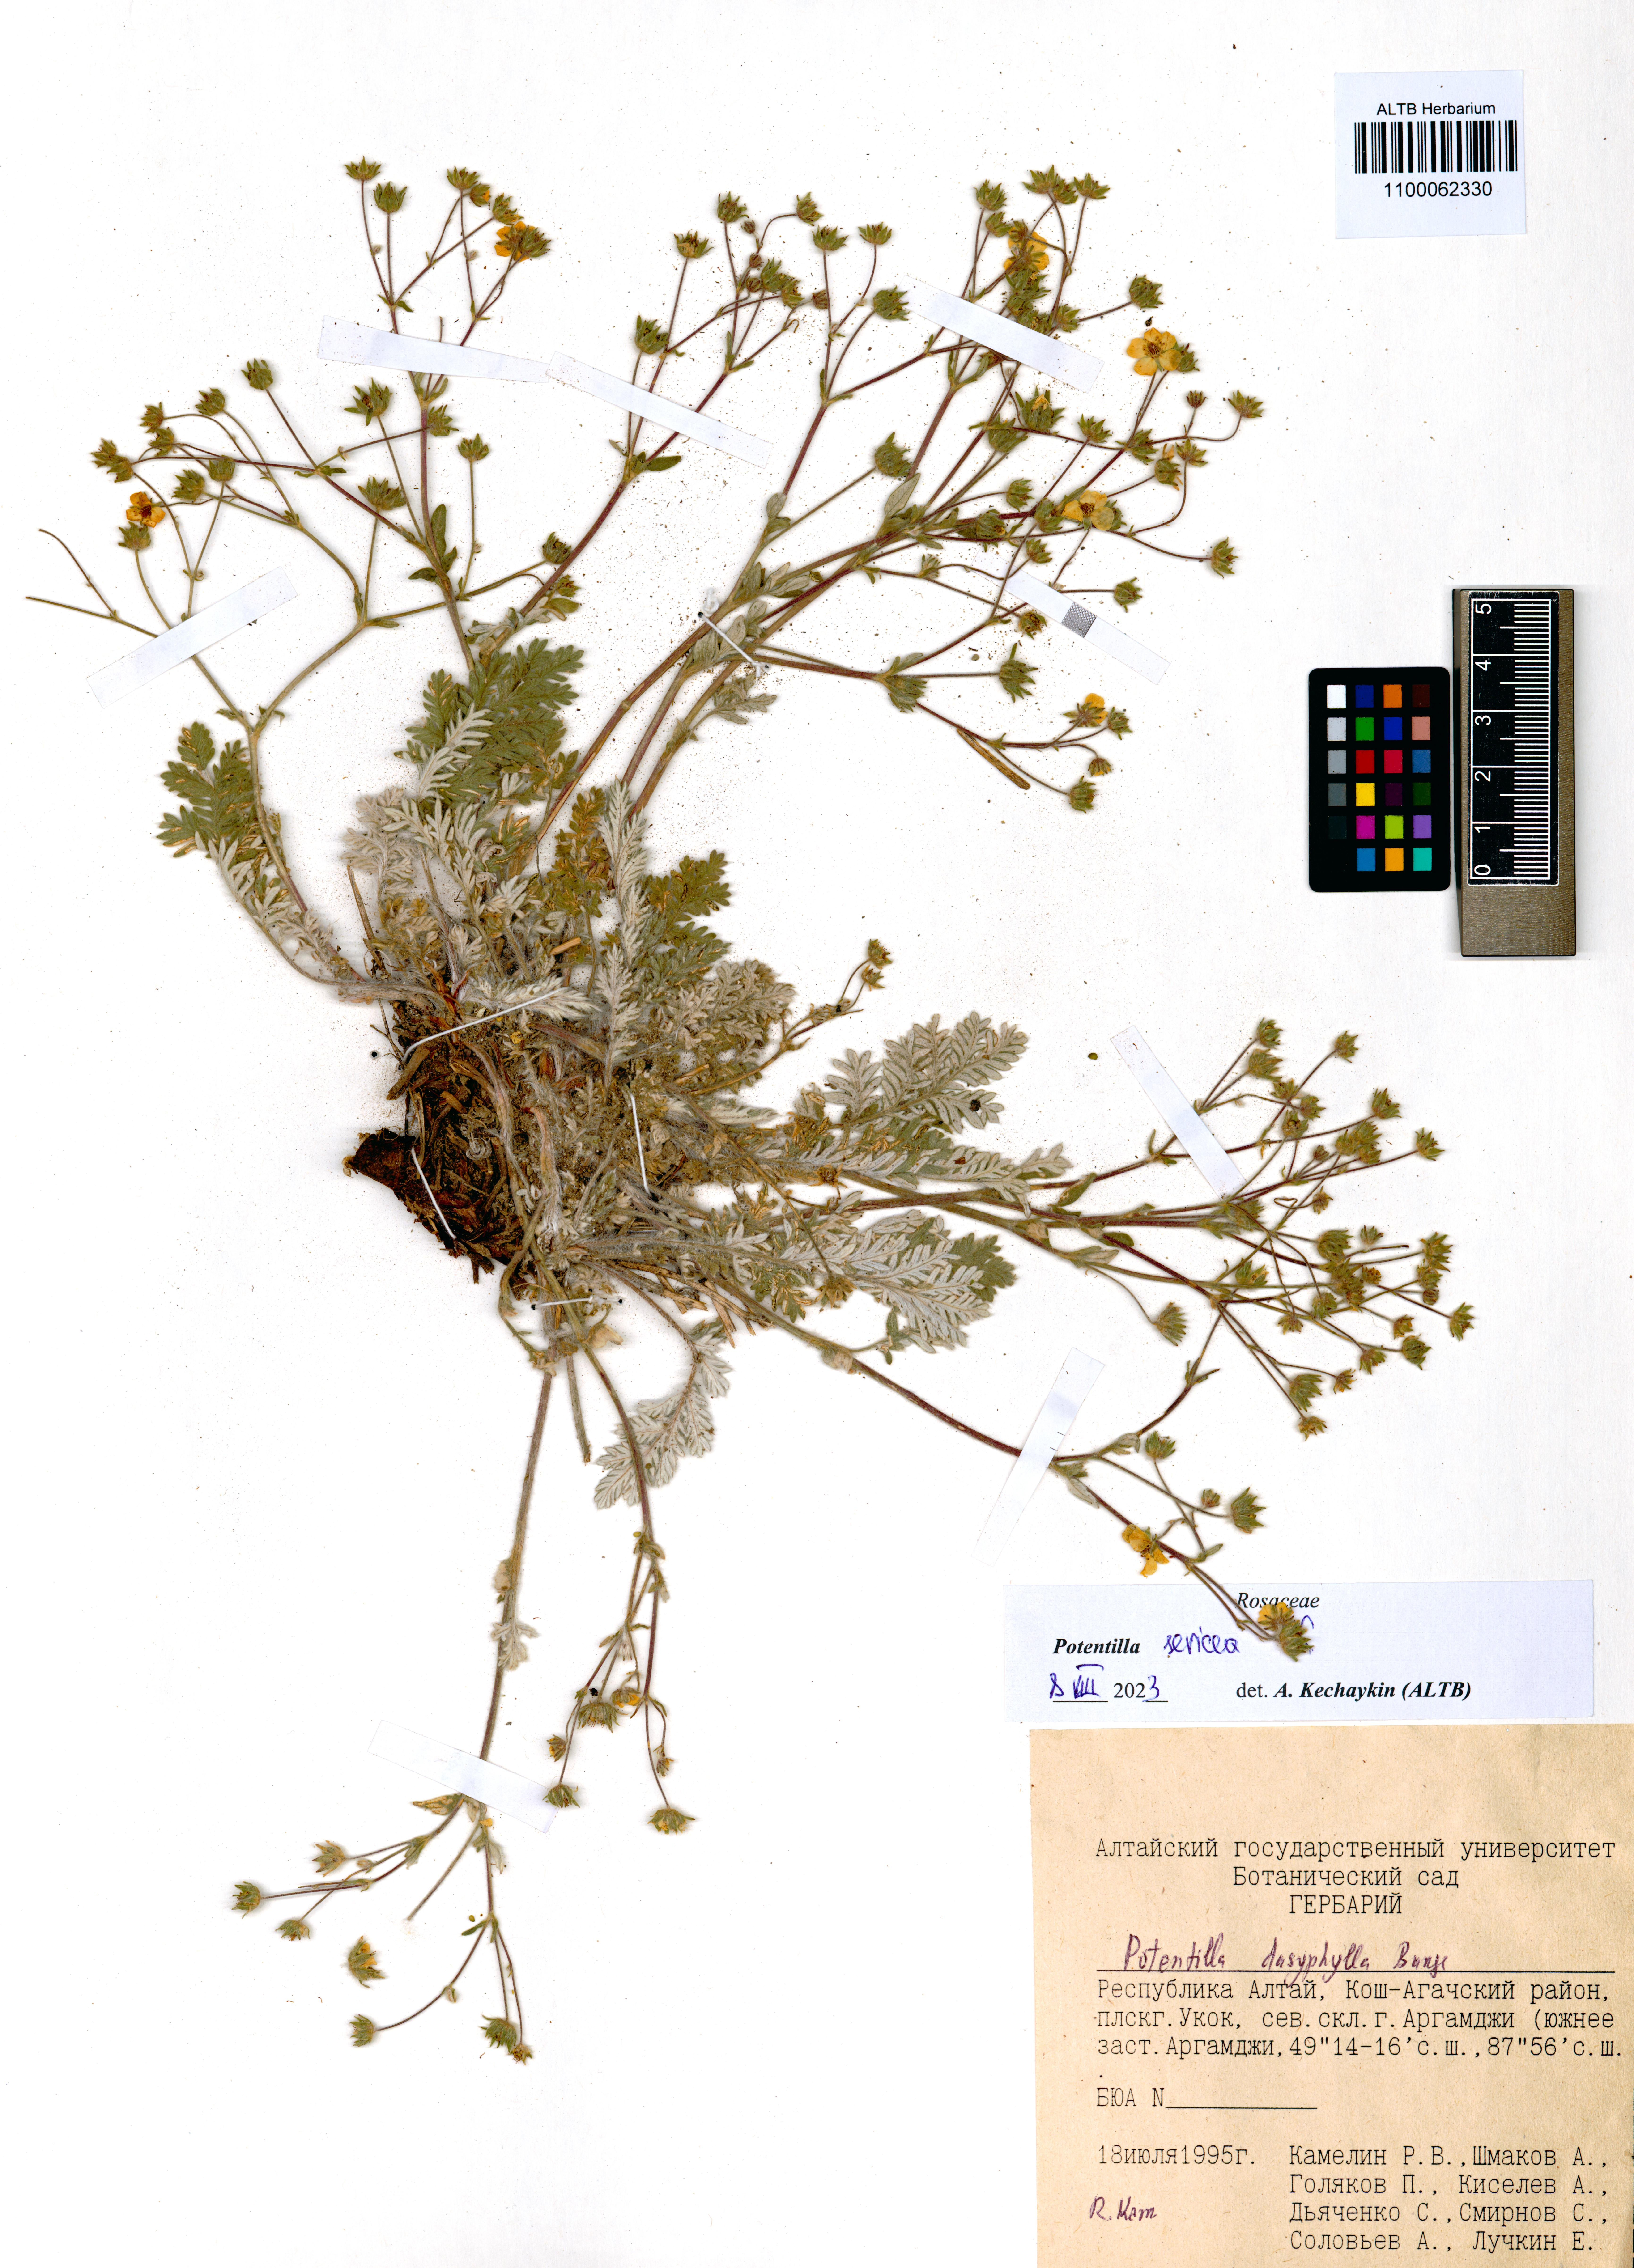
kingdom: Plantae
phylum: Tracheophyta
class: Magnoliopsida
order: Rosales
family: Rosaceae
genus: Potentilla
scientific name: Potentilla sericea
